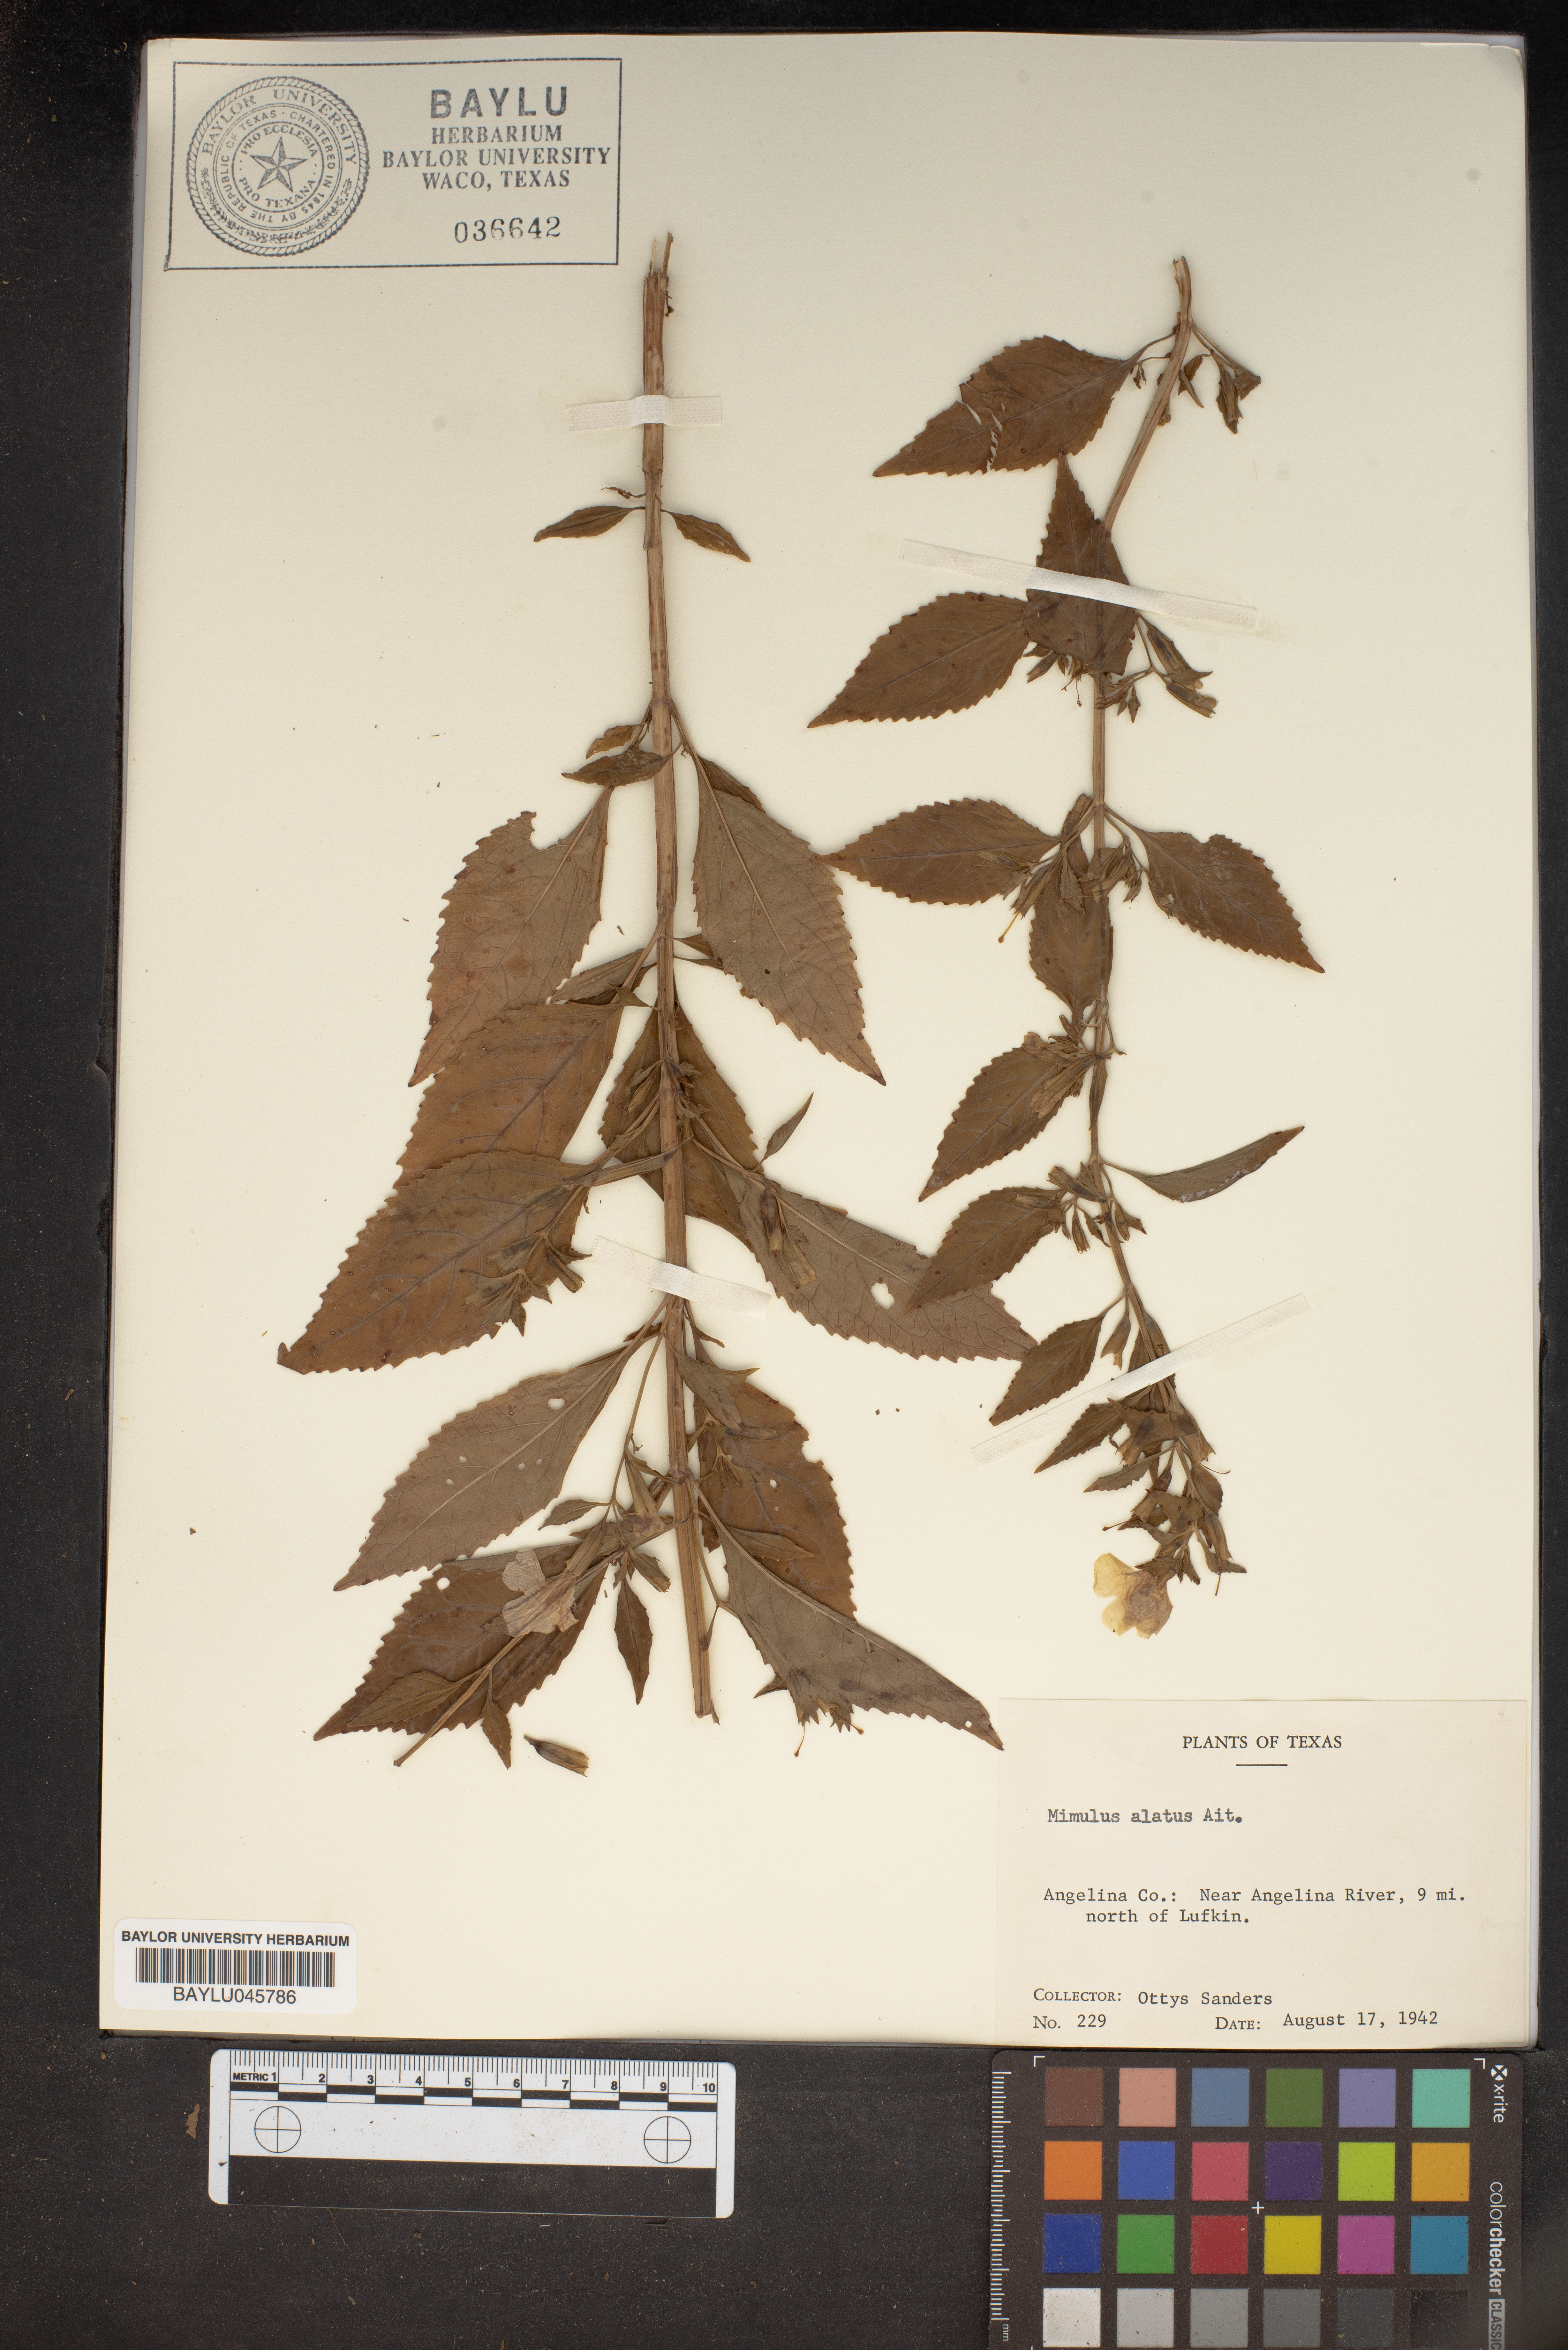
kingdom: Plantae
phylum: Tracheophyta
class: Magnoliopsida
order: Lamiales
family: Phrymaceae
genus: Mimulus
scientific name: Mimulus alatus
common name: Sharp-wing monkey-flower
